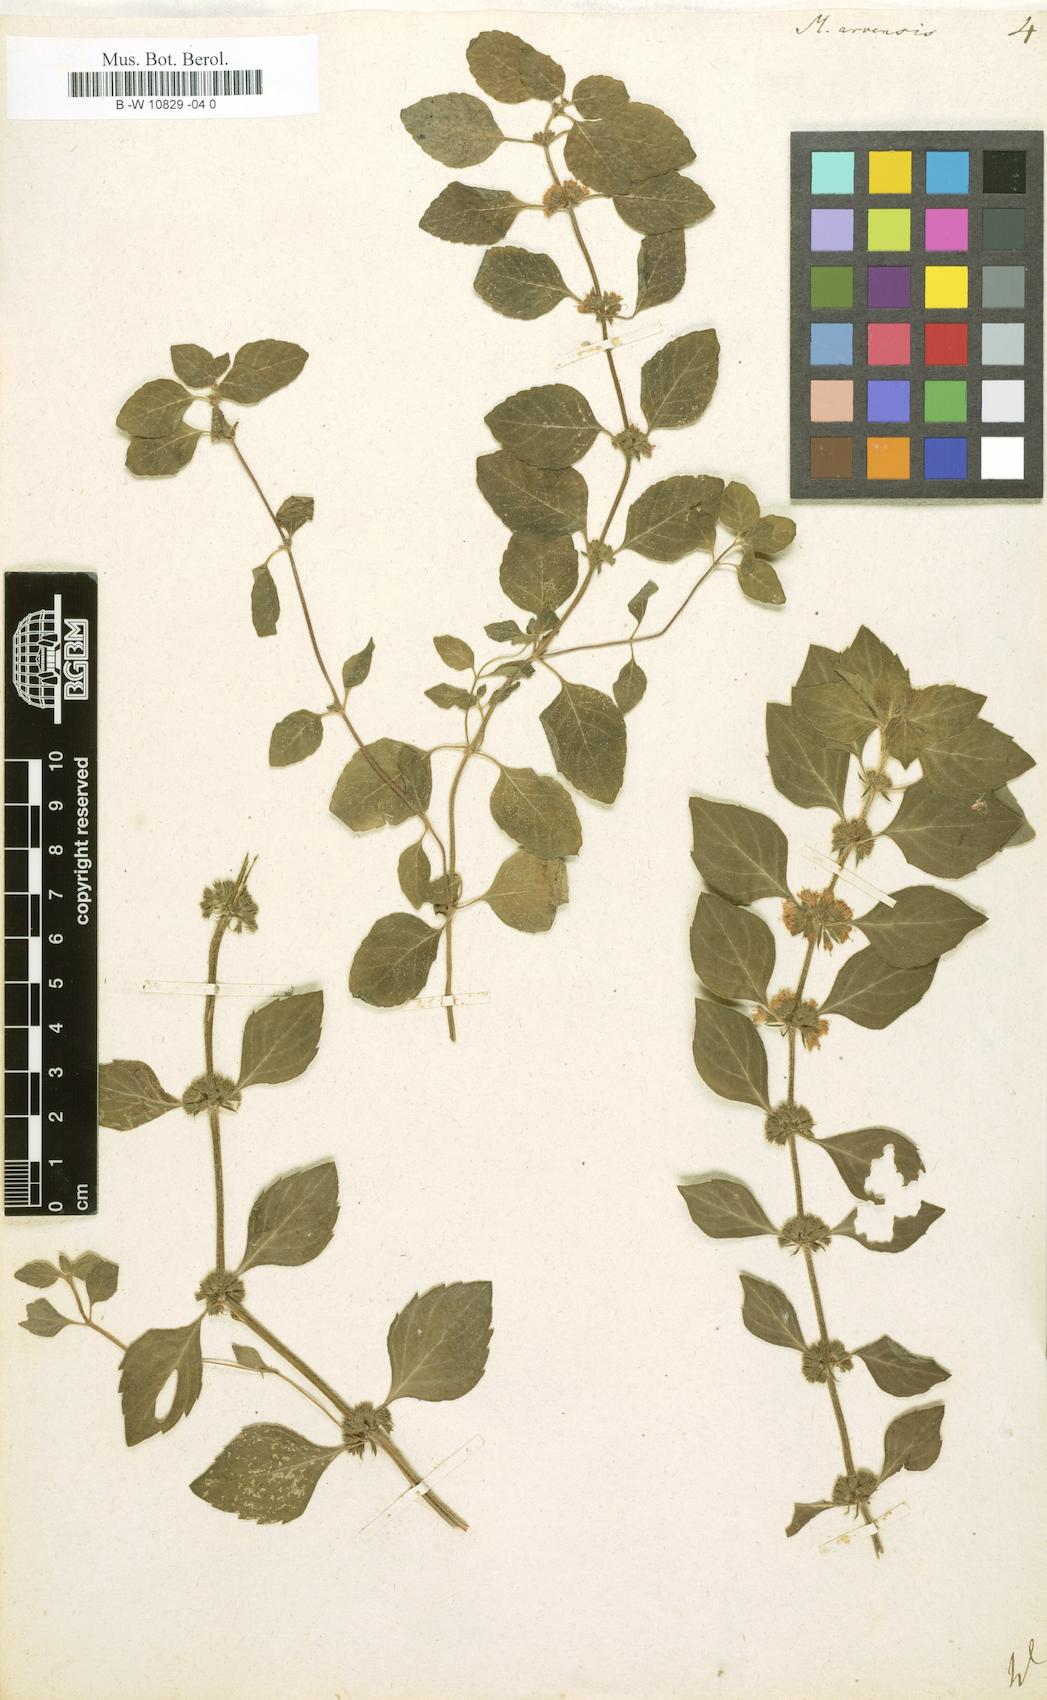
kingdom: Plantae
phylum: Tracheophyta
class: Magnoliopsida
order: Lamiales
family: Lamiaceae
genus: Mentha
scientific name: Mentha arvensis
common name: Corn mint
